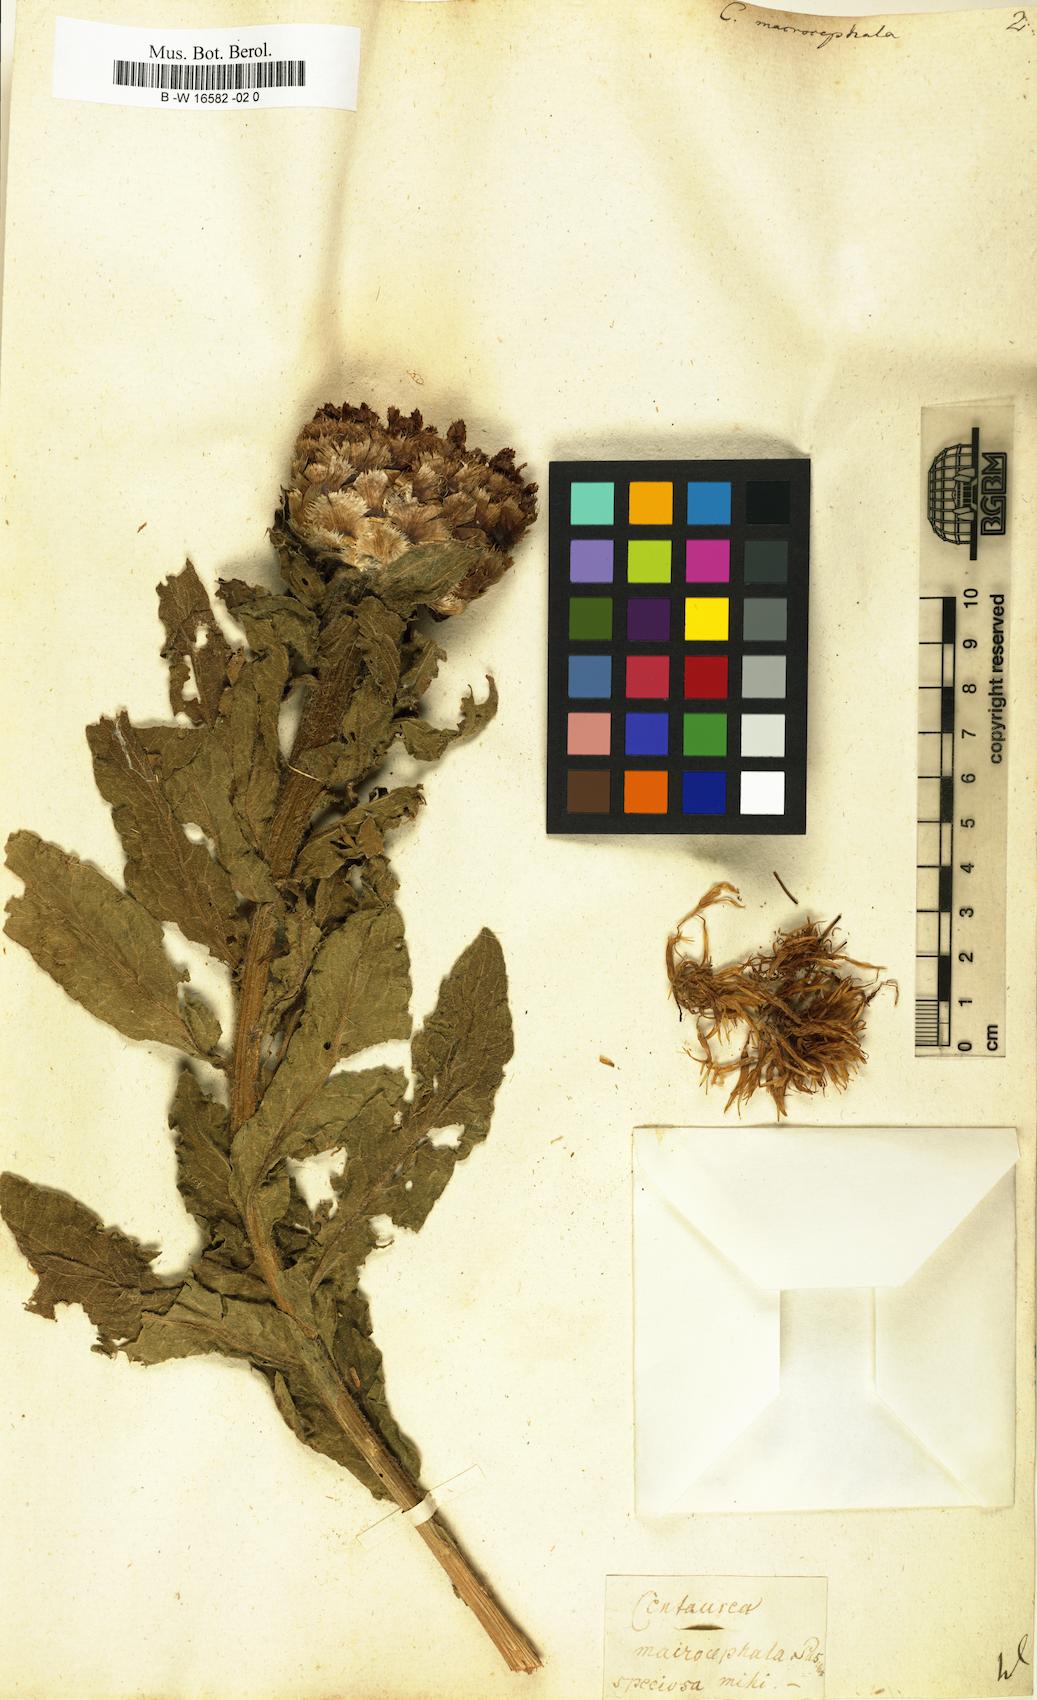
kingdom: Plantae
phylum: Tracheophyta
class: Magnoliopsida
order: Asterales
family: Asteraceae
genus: Centaurea
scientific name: Centaurea macrocephala
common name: Big-head knapweed
